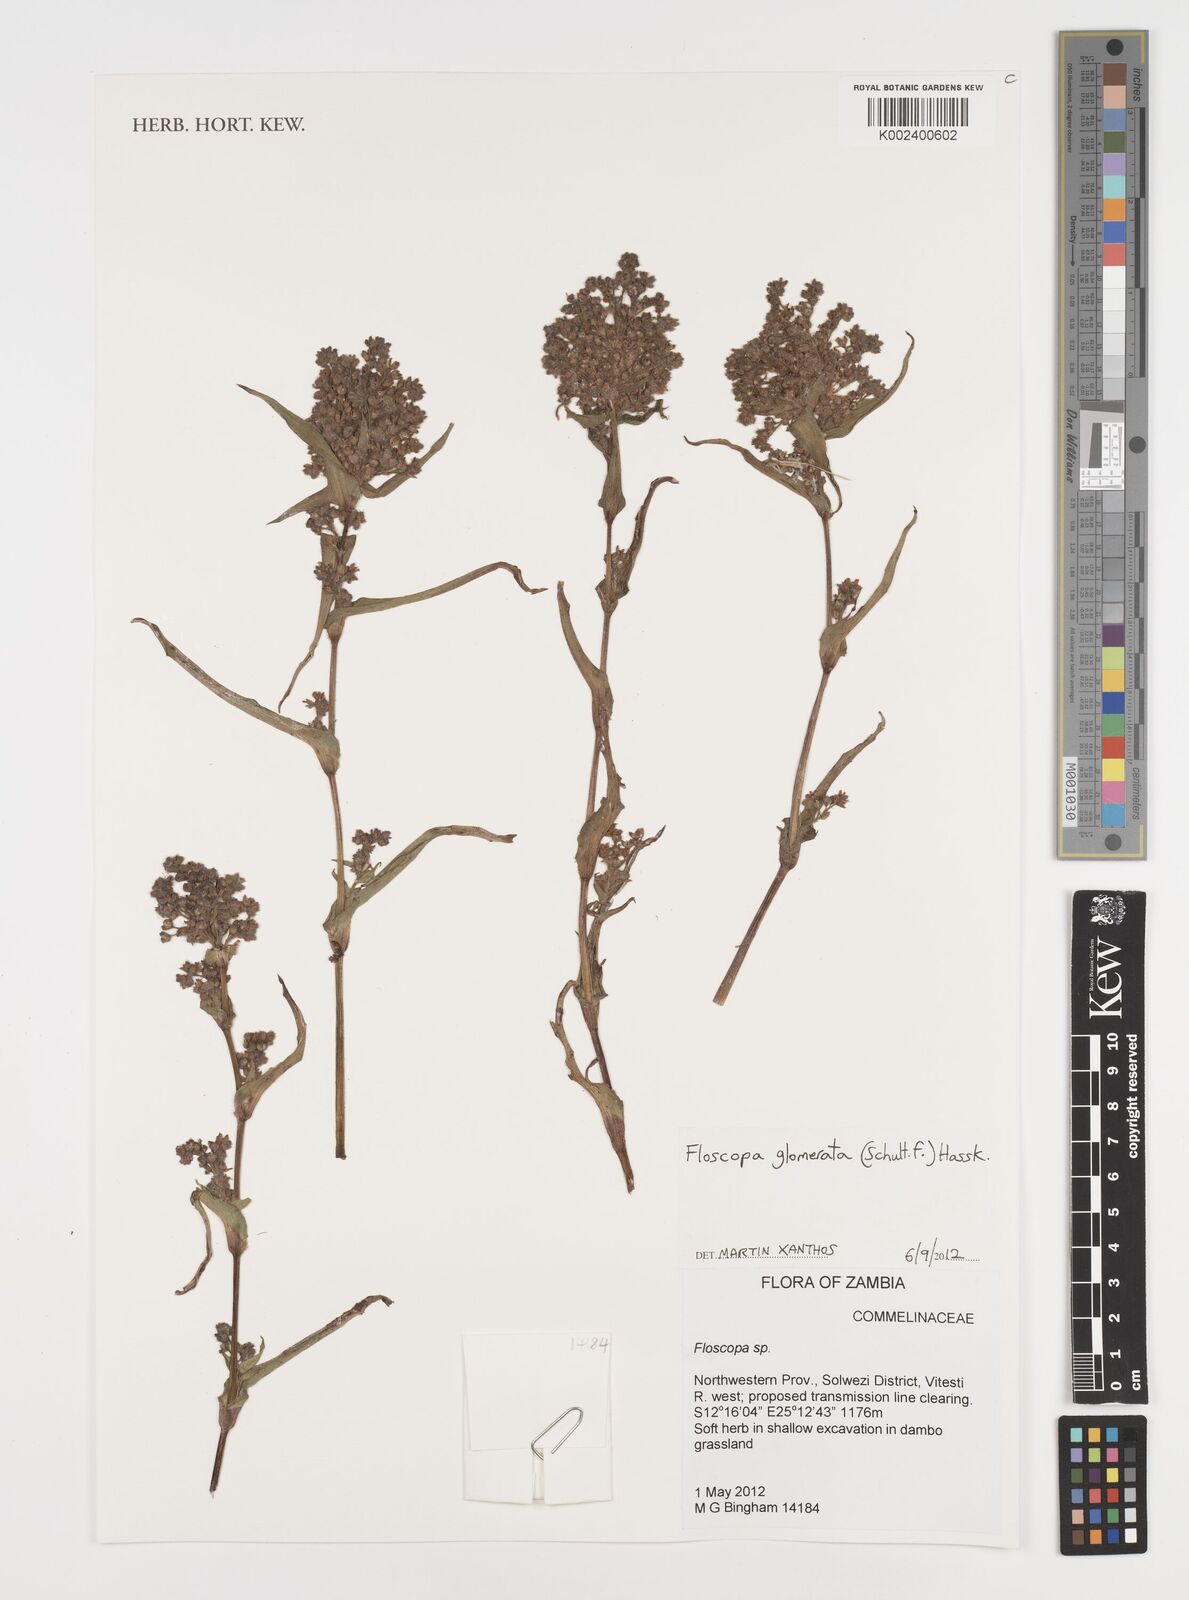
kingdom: Plantae
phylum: Tracheophyta
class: Liliopsida
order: Commelinales
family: Commelinaceae
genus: Floscopa
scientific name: Floscopa glomerata
